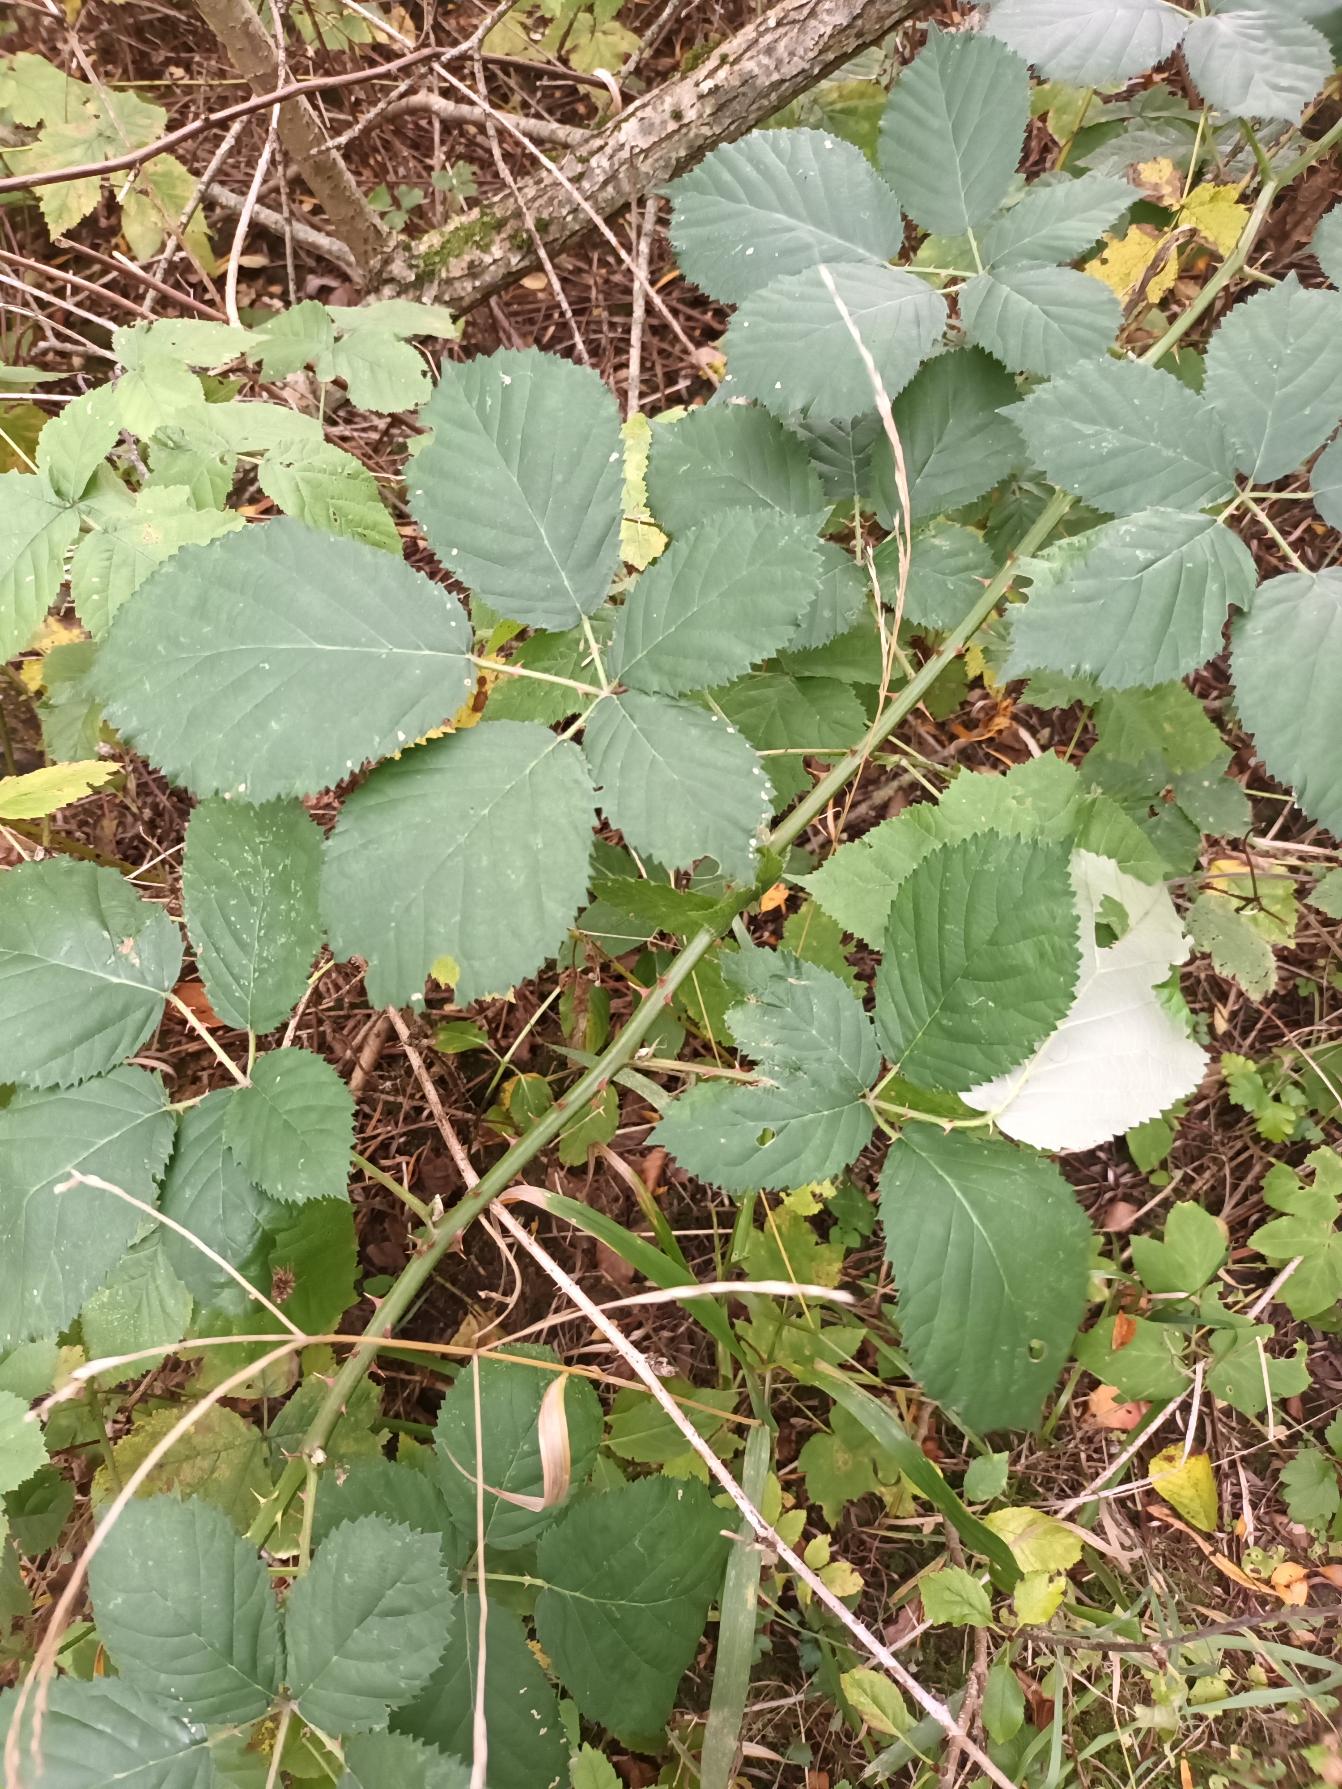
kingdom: Plantae
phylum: Tracheophyta
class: Magnoliopsida
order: Rosales
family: Rosaceae
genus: Rubus
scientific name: Rubus armeniacus
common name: Armensk brombær
